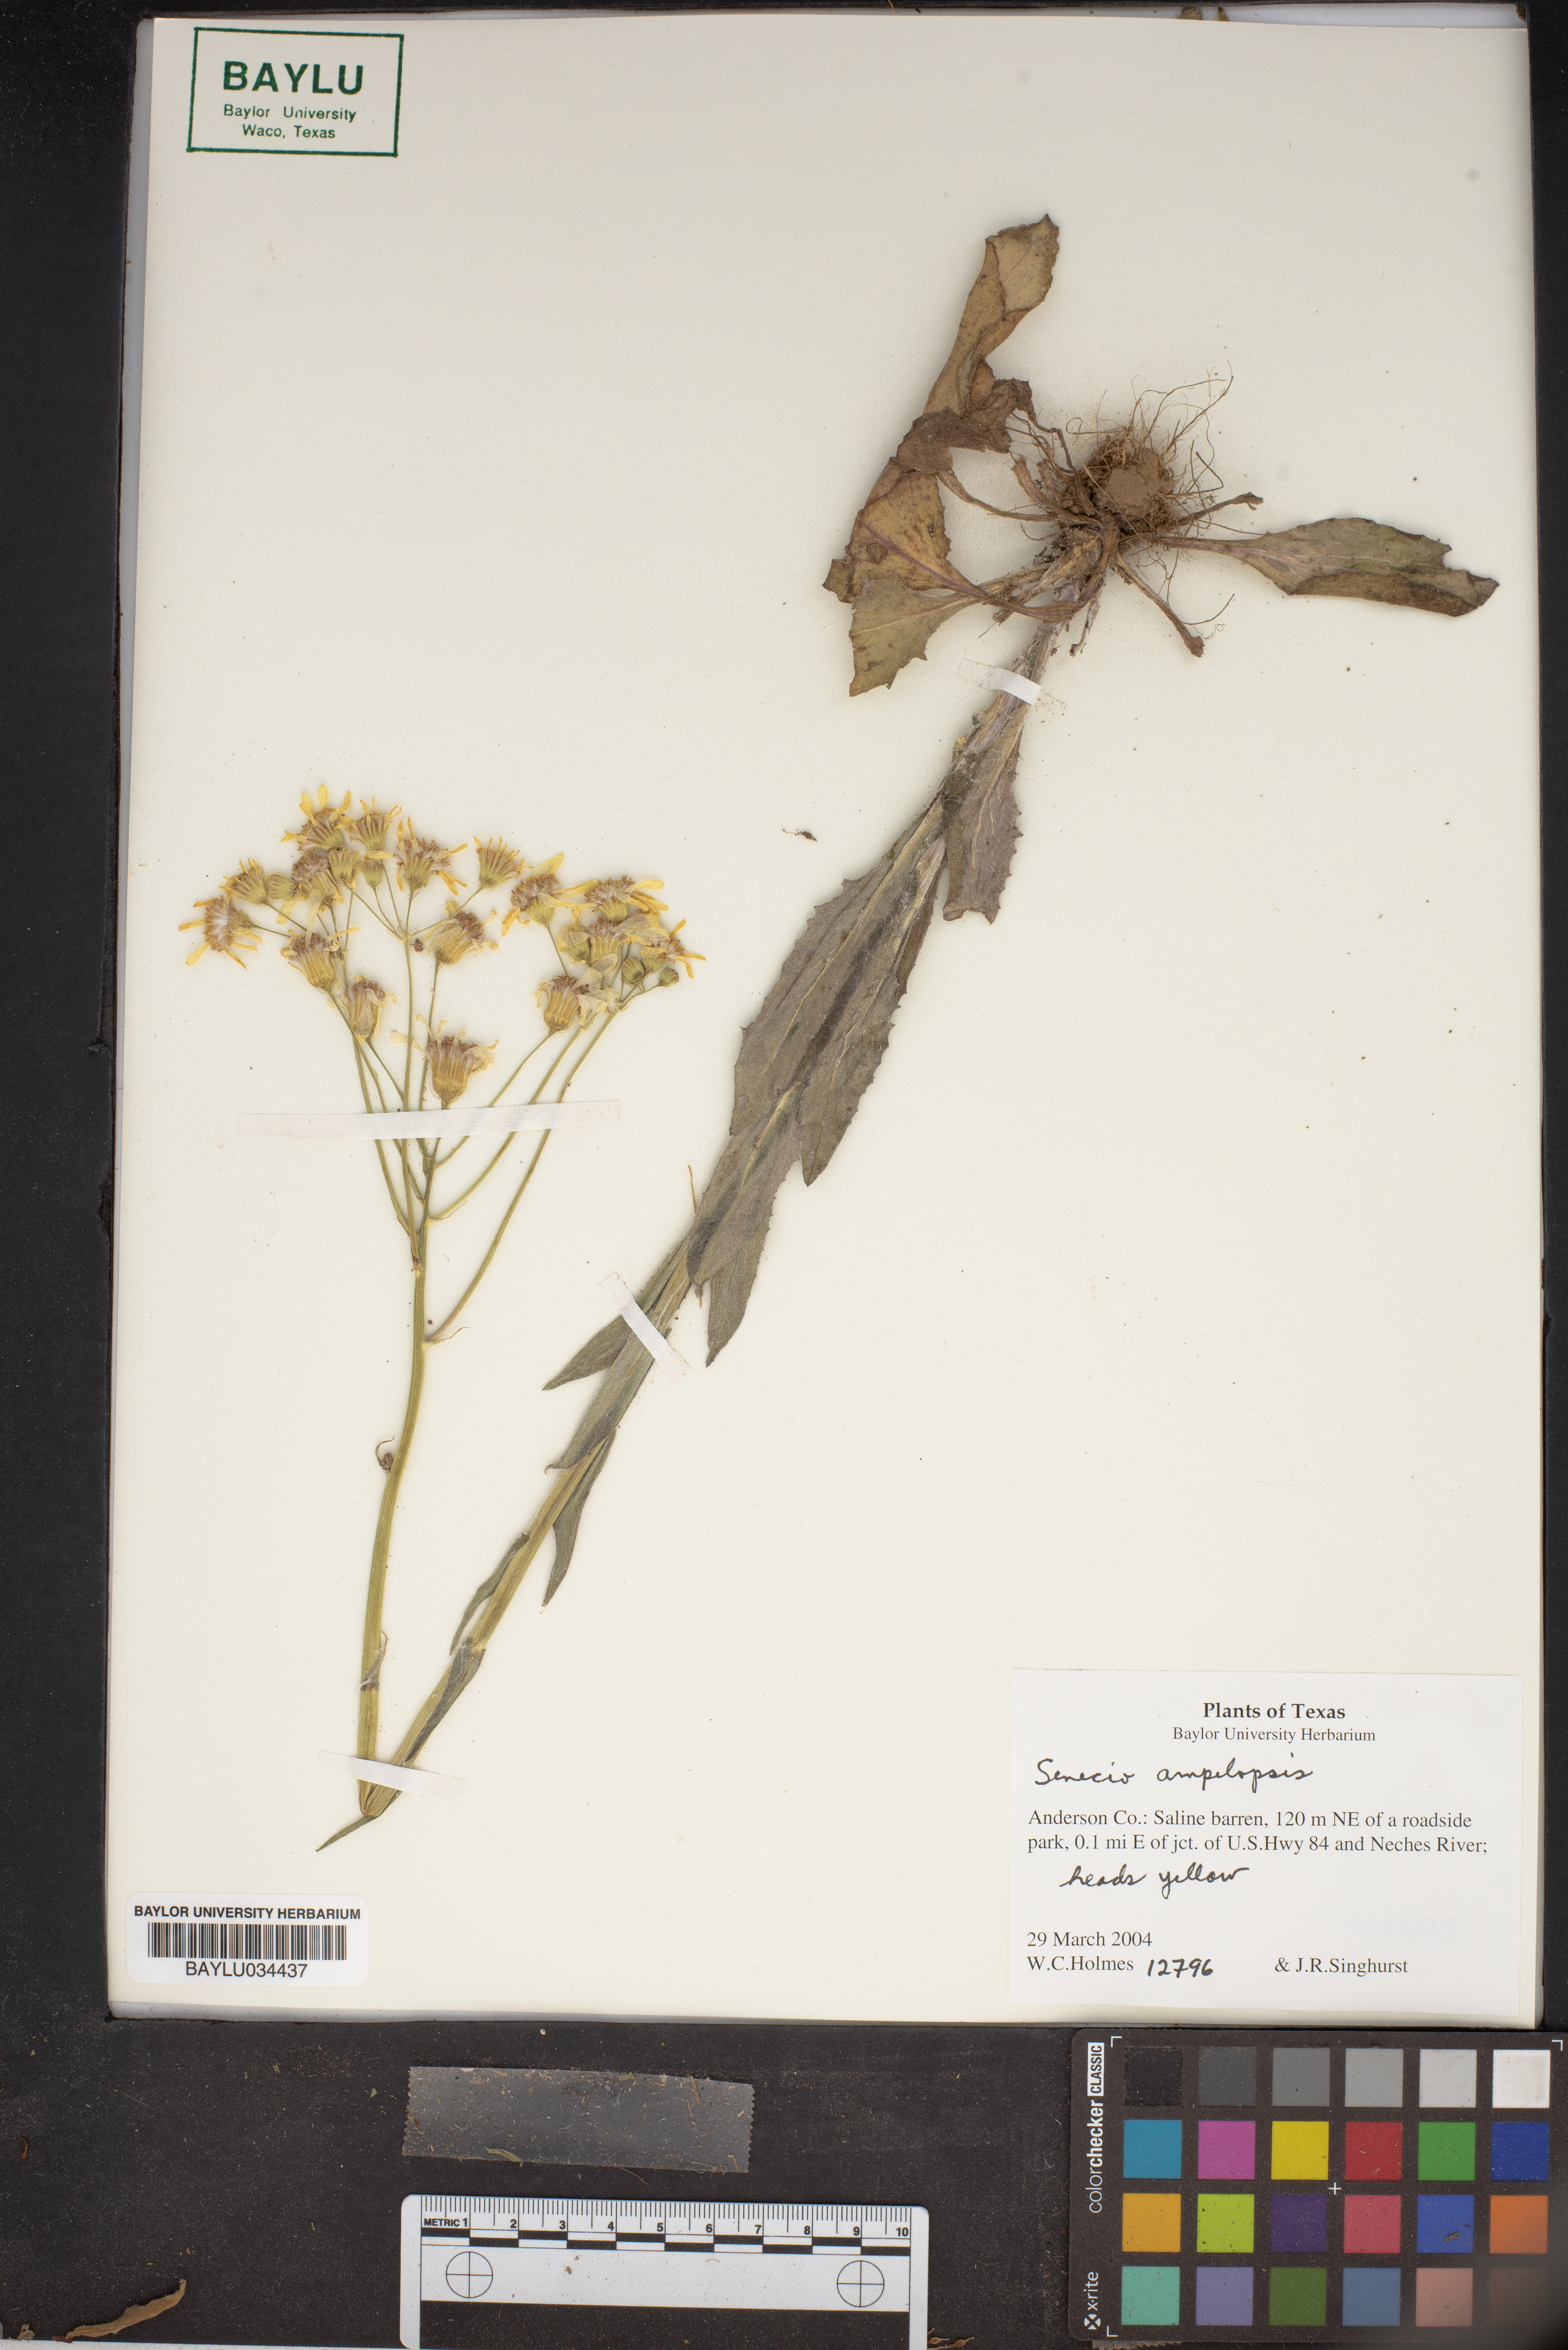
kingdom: Plantae
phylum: Tracheophyta
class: Magnoliopsida
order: Asterales
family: Asteraceae
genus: Senecio
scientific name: Senecio
